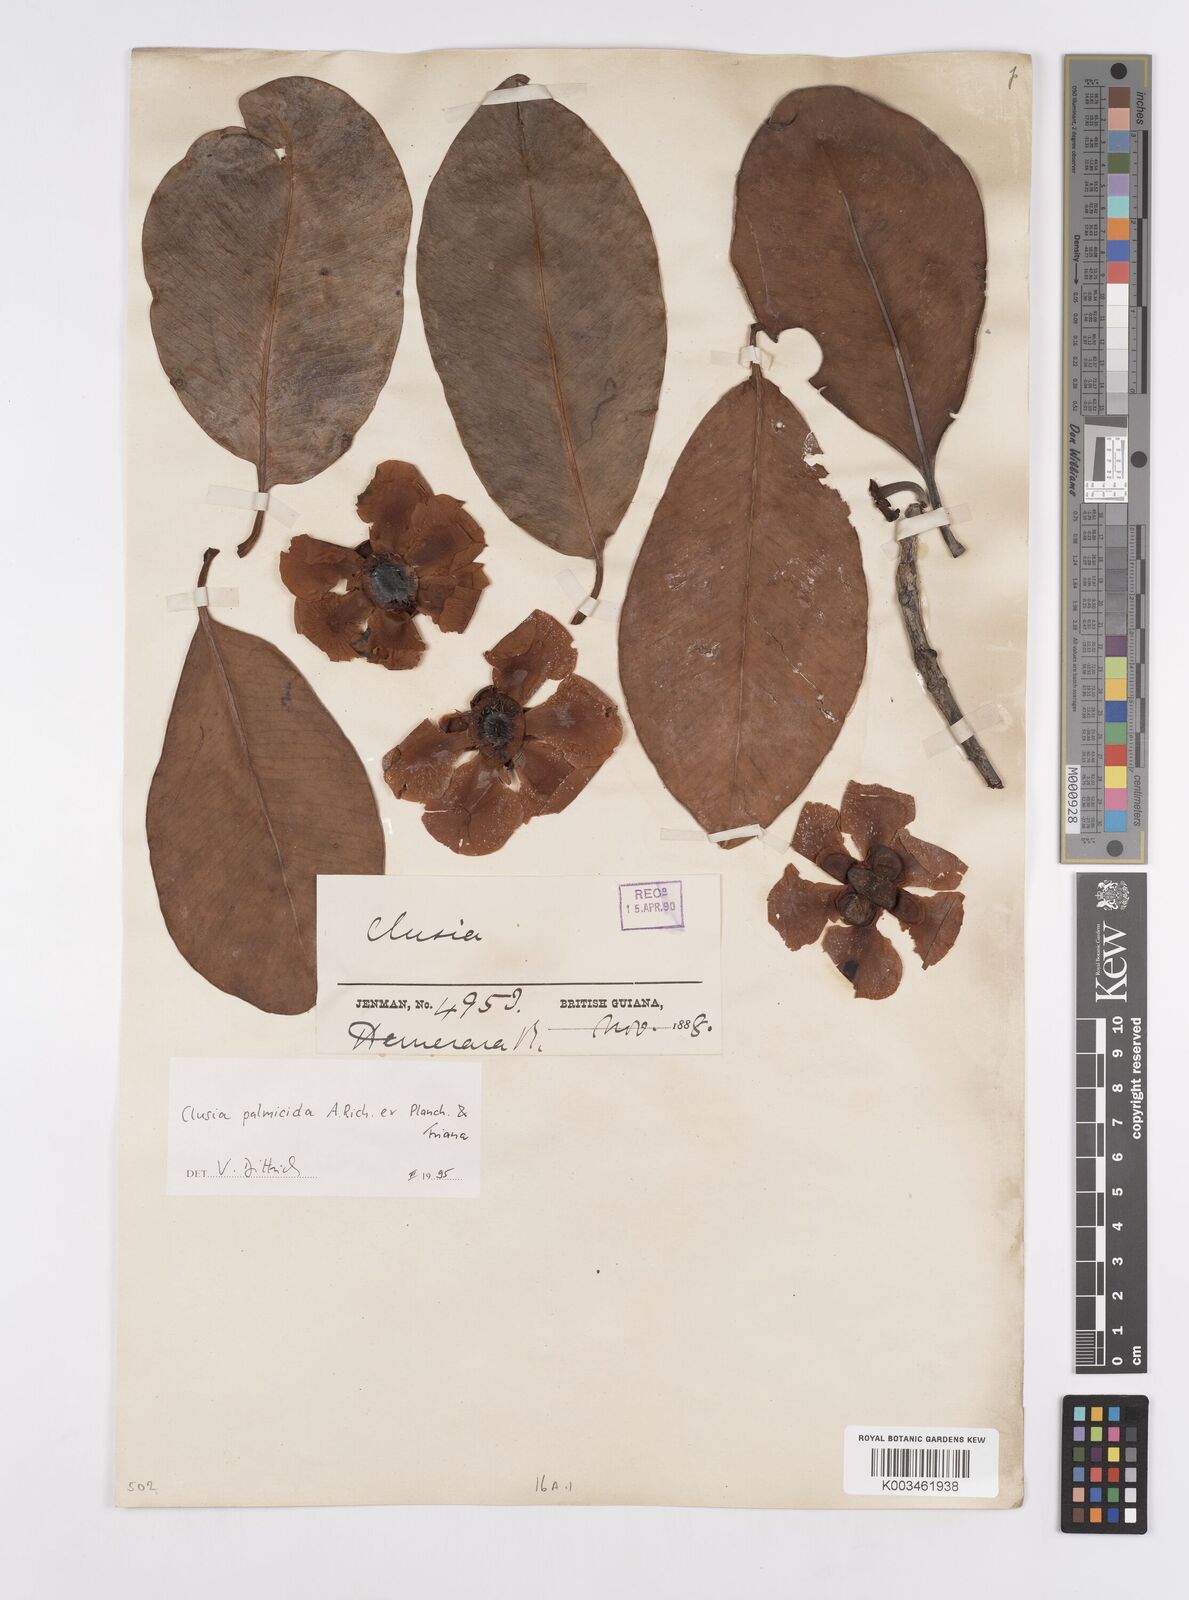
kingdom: Plantae
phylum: Tracheophyta
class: Magnoliopsida
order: Malpighiales
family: Clusiaceae
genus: Clusia
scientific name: Clusia palmicida
